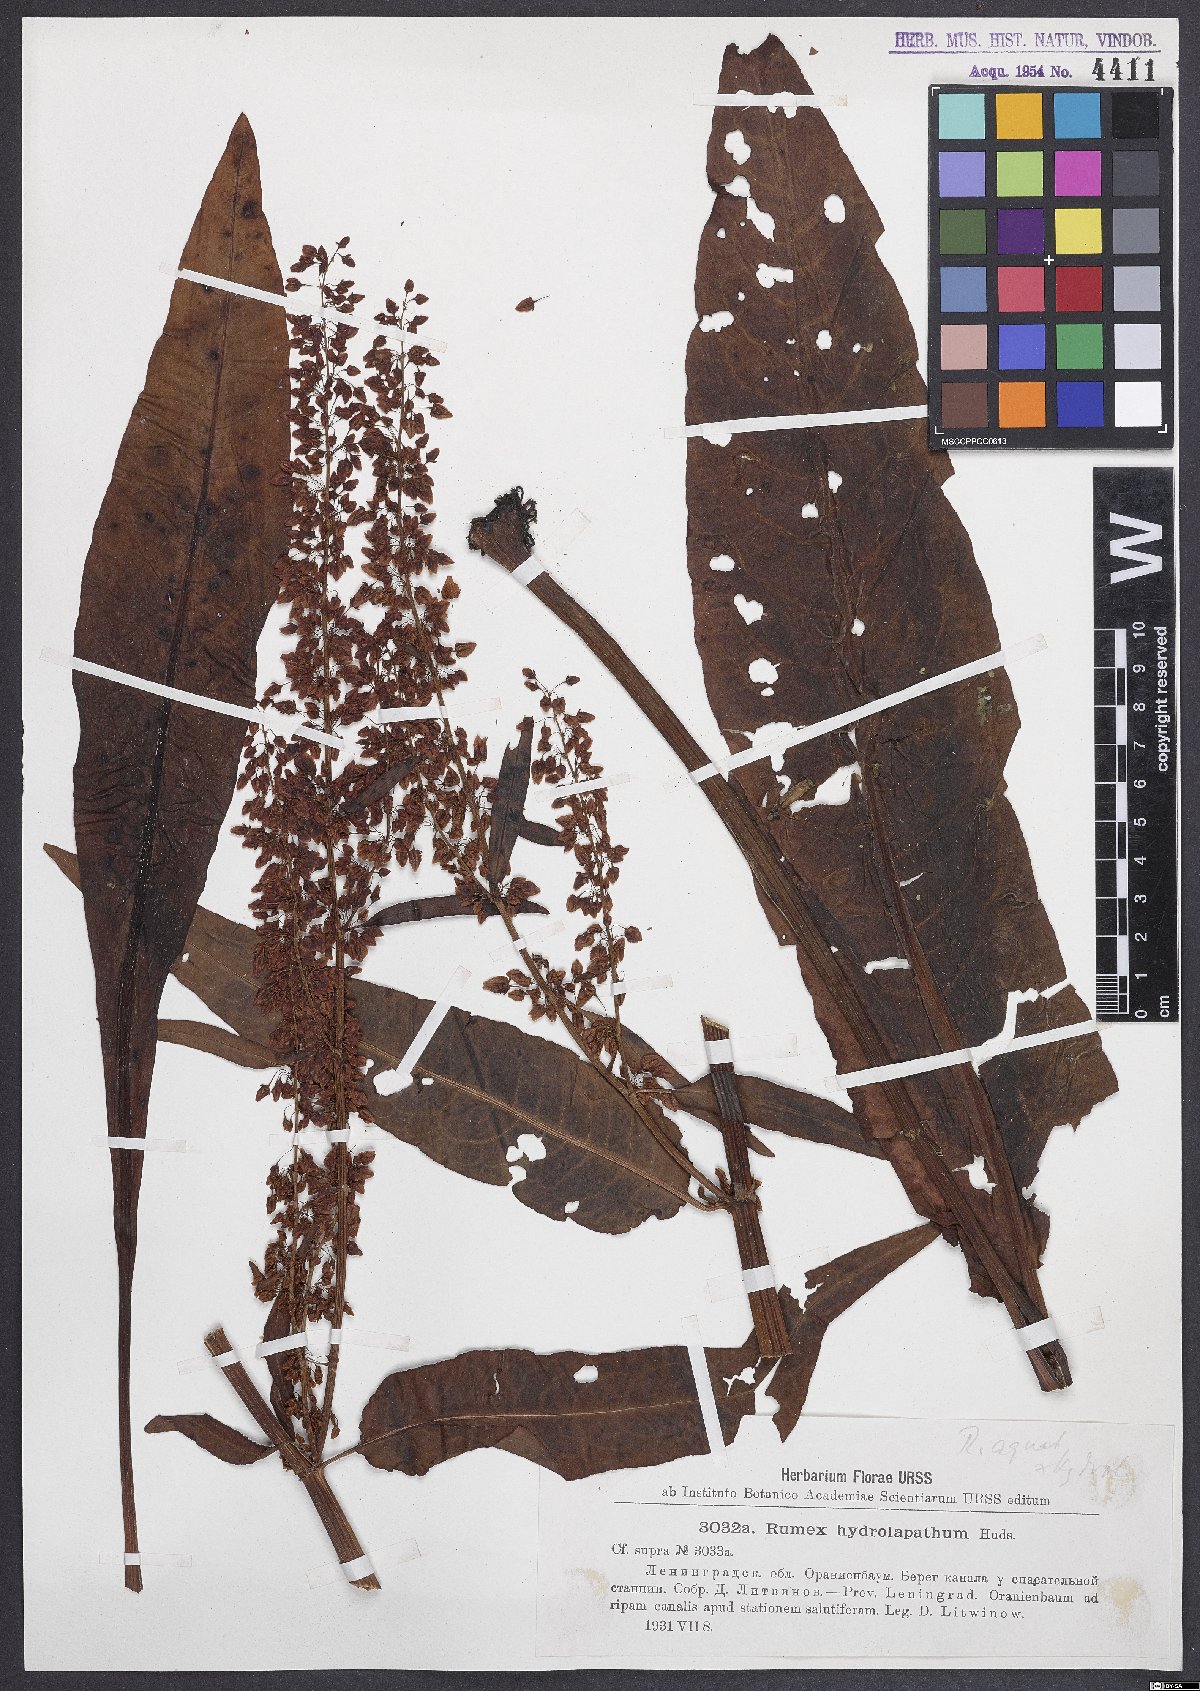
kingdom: Plantae
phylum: Tracheophyta
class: Magnoliopsida
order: Caryophyllales
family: Polygonaceae
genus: Rumex
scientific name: Rumex hydrolapathum
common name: Water dock
